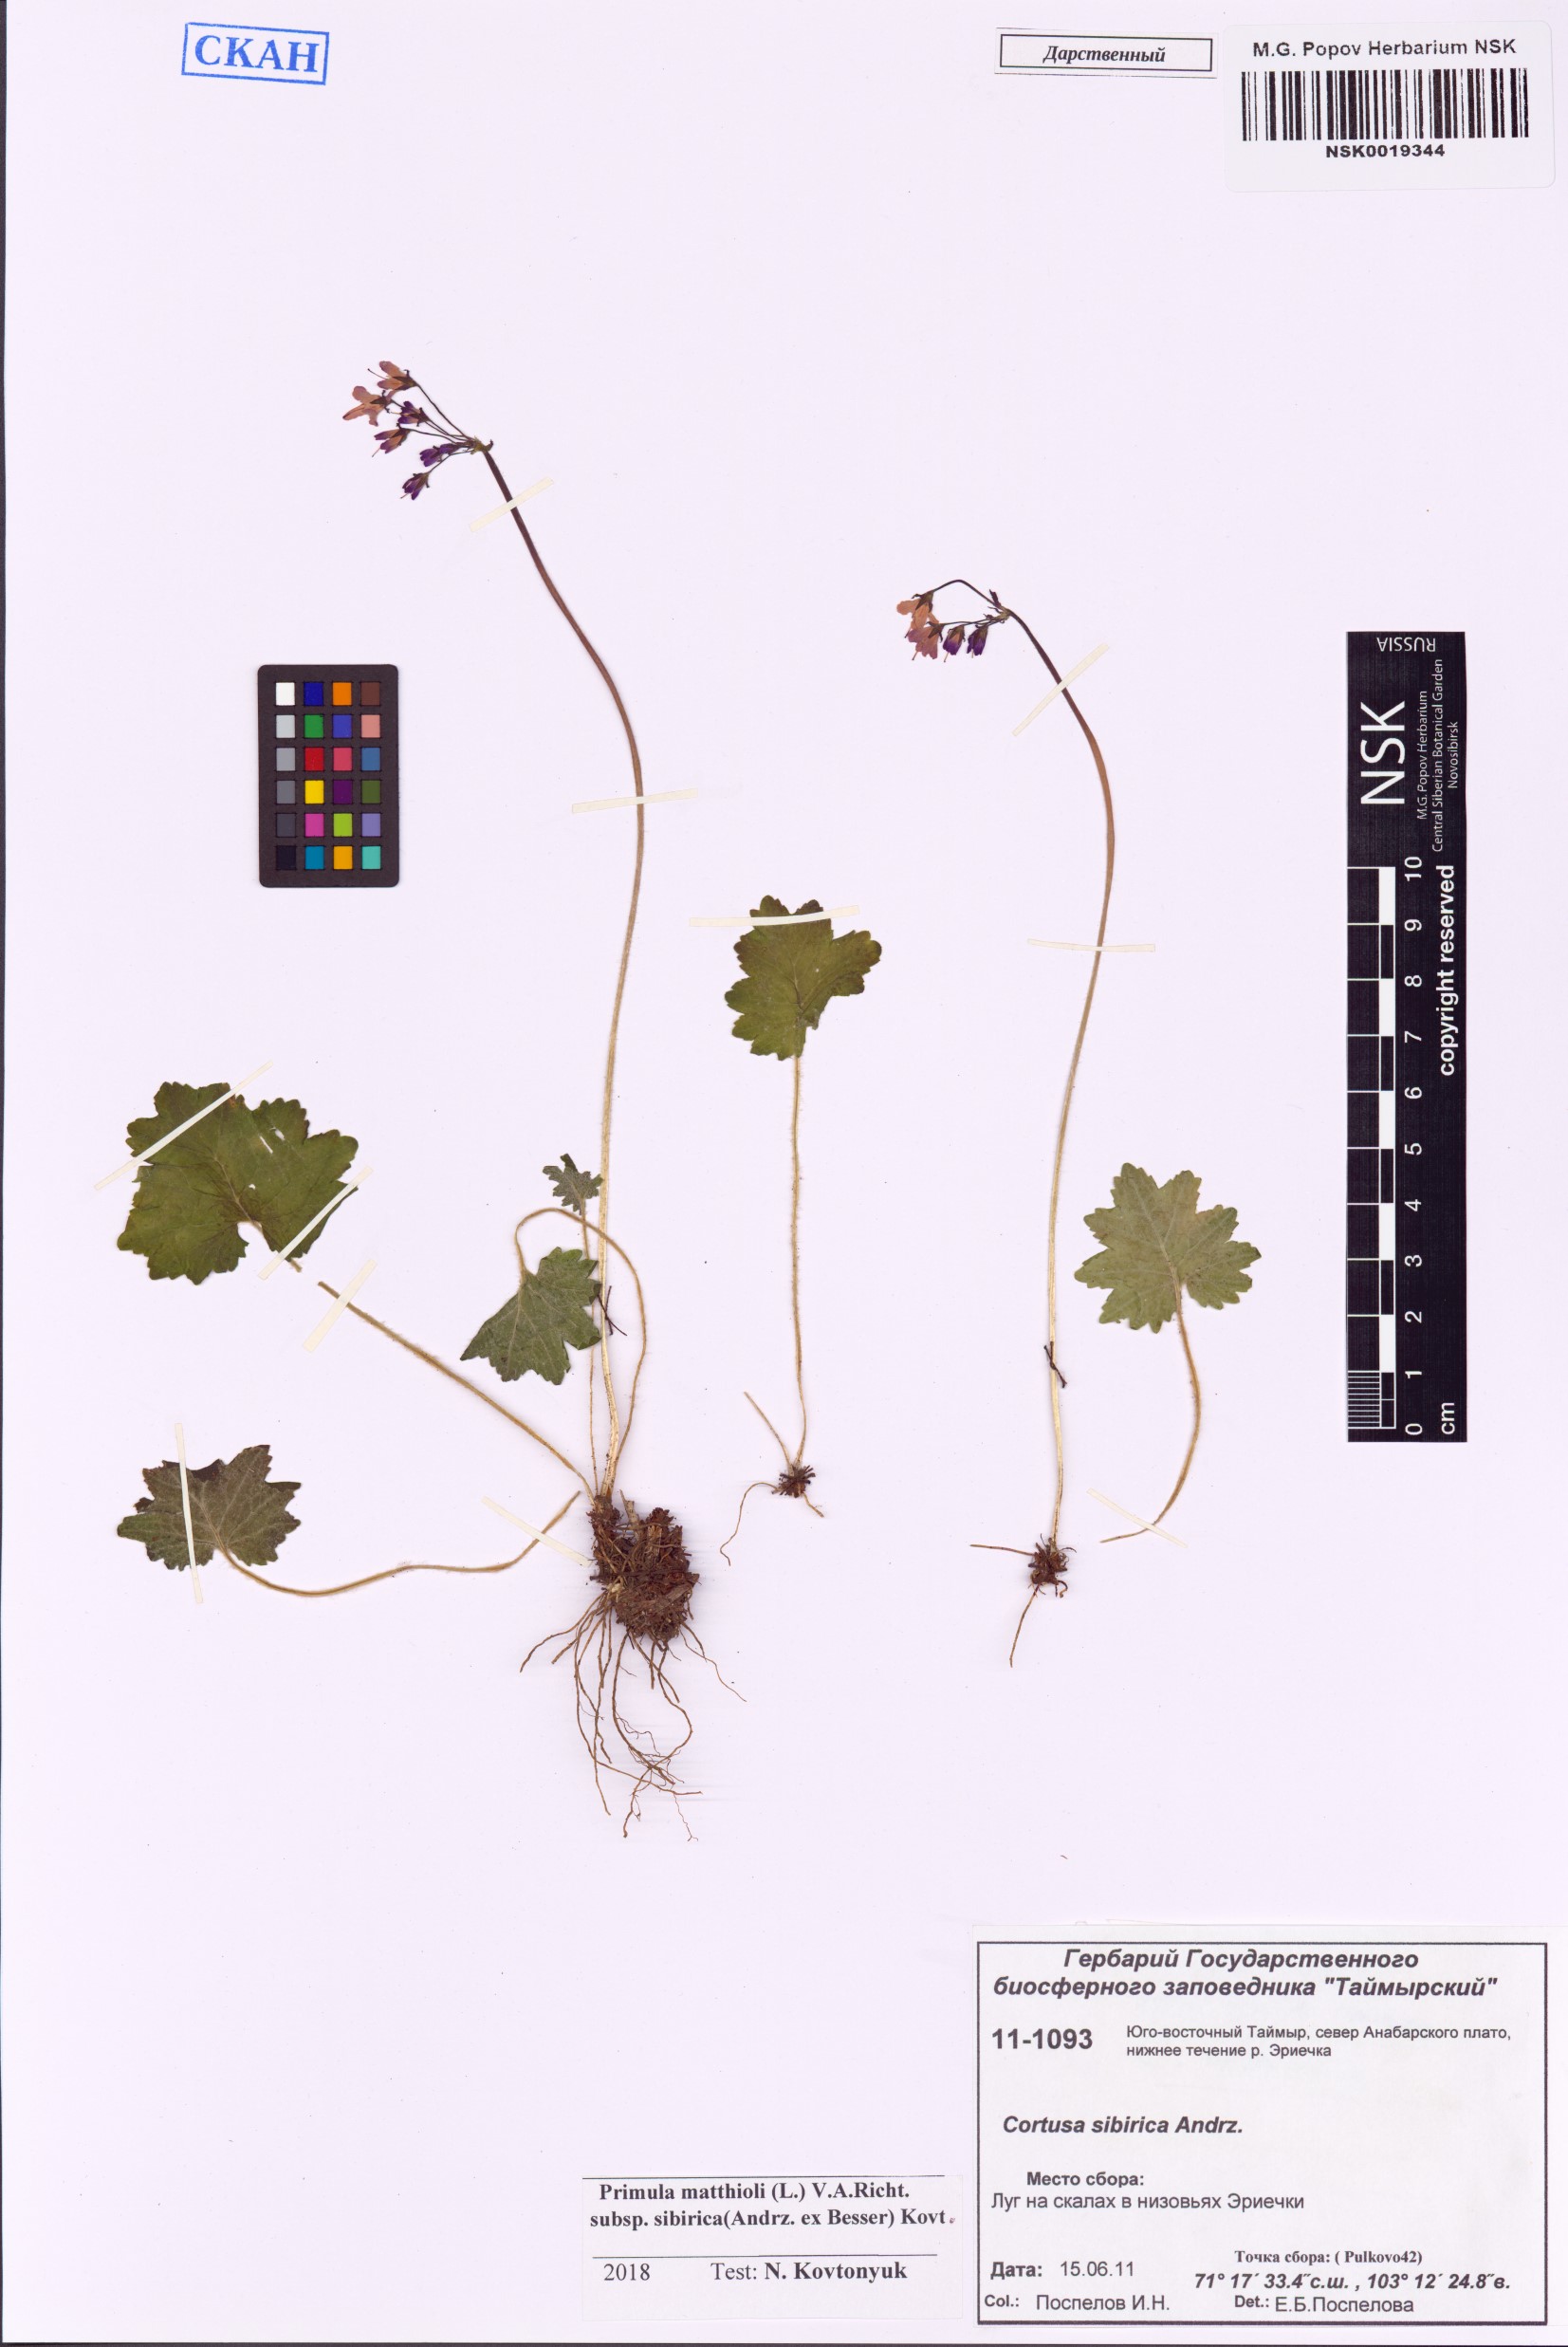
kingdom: Plantae
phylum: Tracheophyta
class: Magnoliopsida
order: Ericales
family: Primulaceae
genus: Primula
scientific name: Primula matthioli
